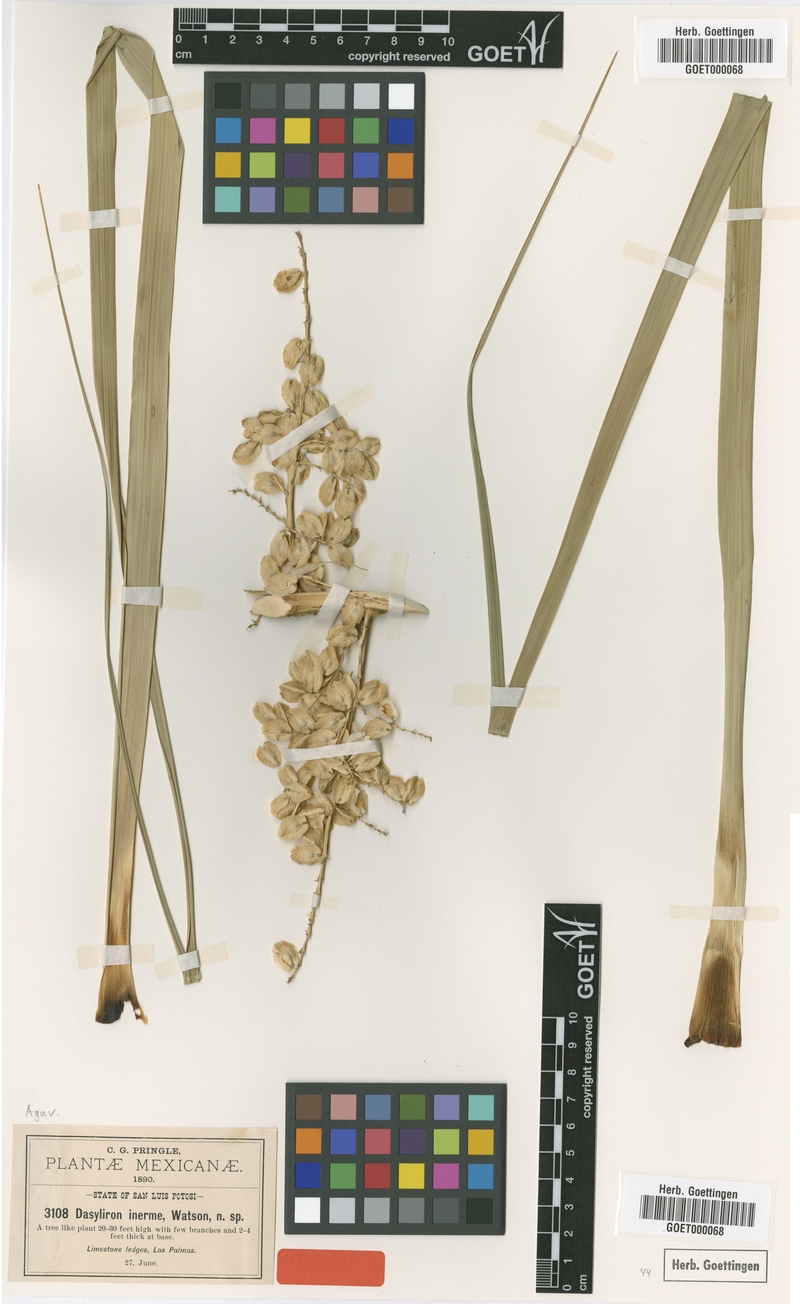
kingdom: Plantae
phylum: Tracheophyta
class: Liliopsida
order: Asparagales
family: Asparagaceae
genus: Beaucarnea
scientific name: Beaucarnea recurvata
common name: Stripy  ponytail
